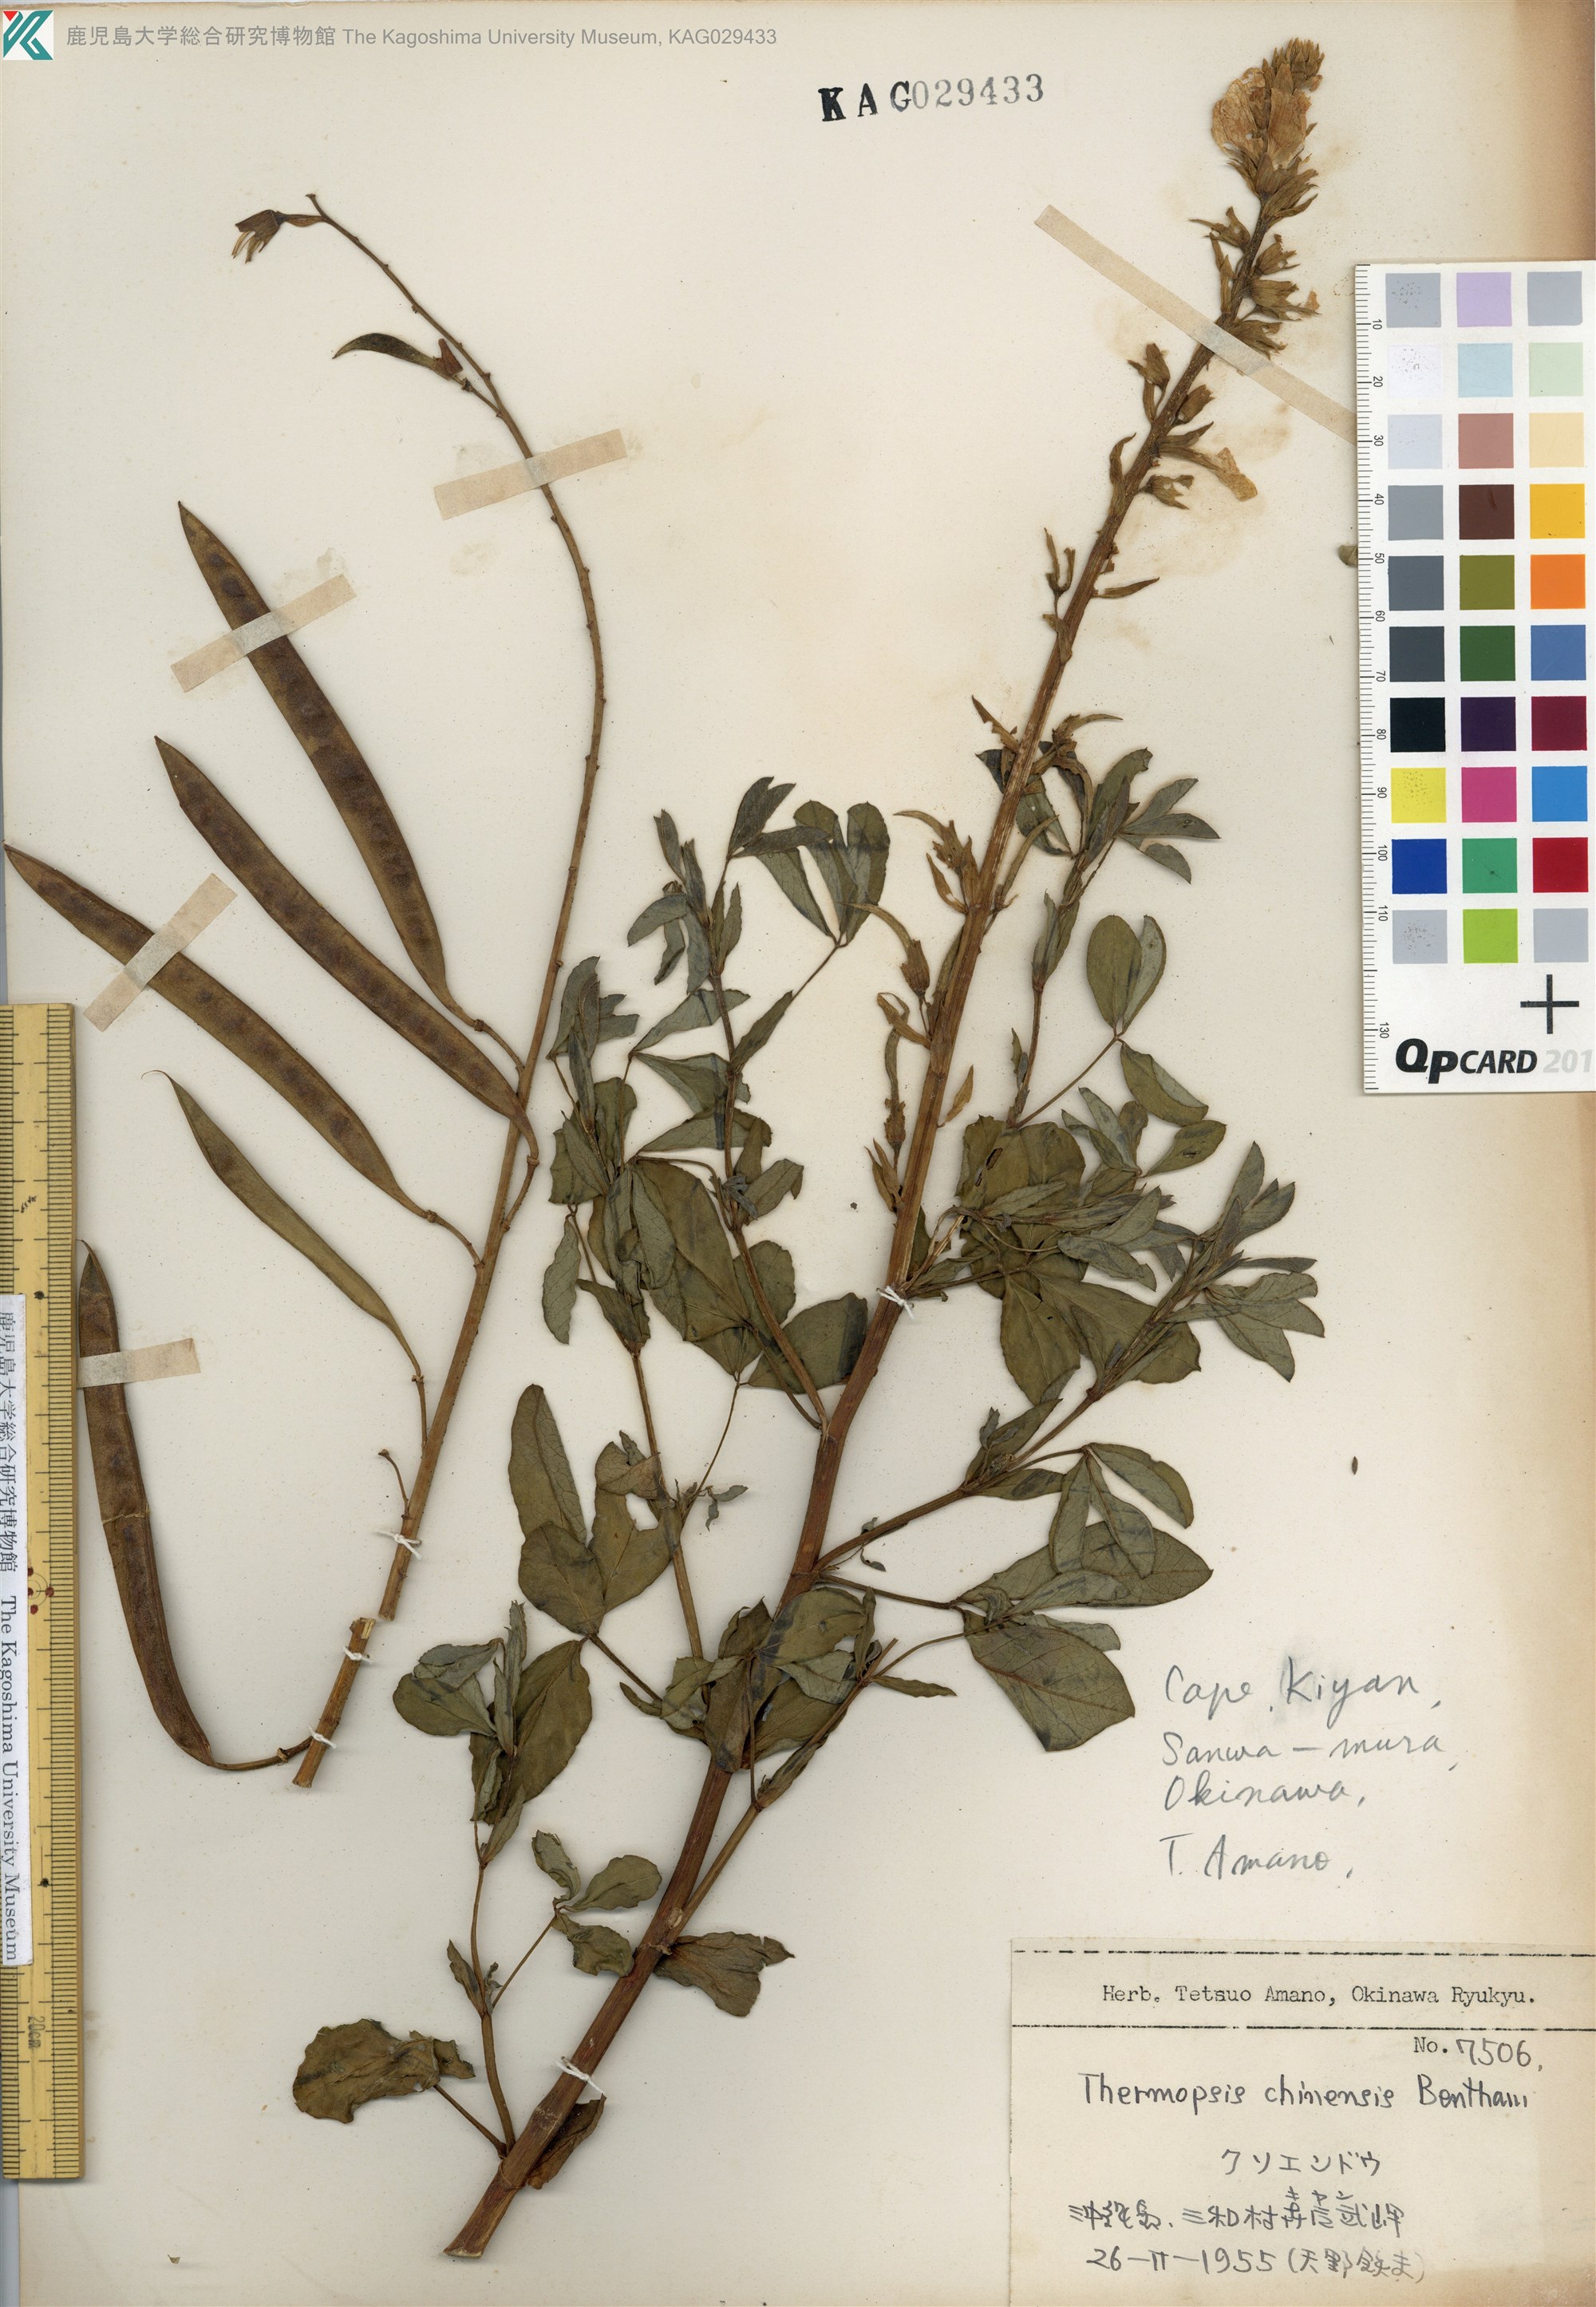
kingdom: Plantae
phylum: Tracheophyta
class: Magnoliopsida
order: Fabales
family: Fabaceae
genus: Thermopsis
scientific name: Thermopsis chinensis
